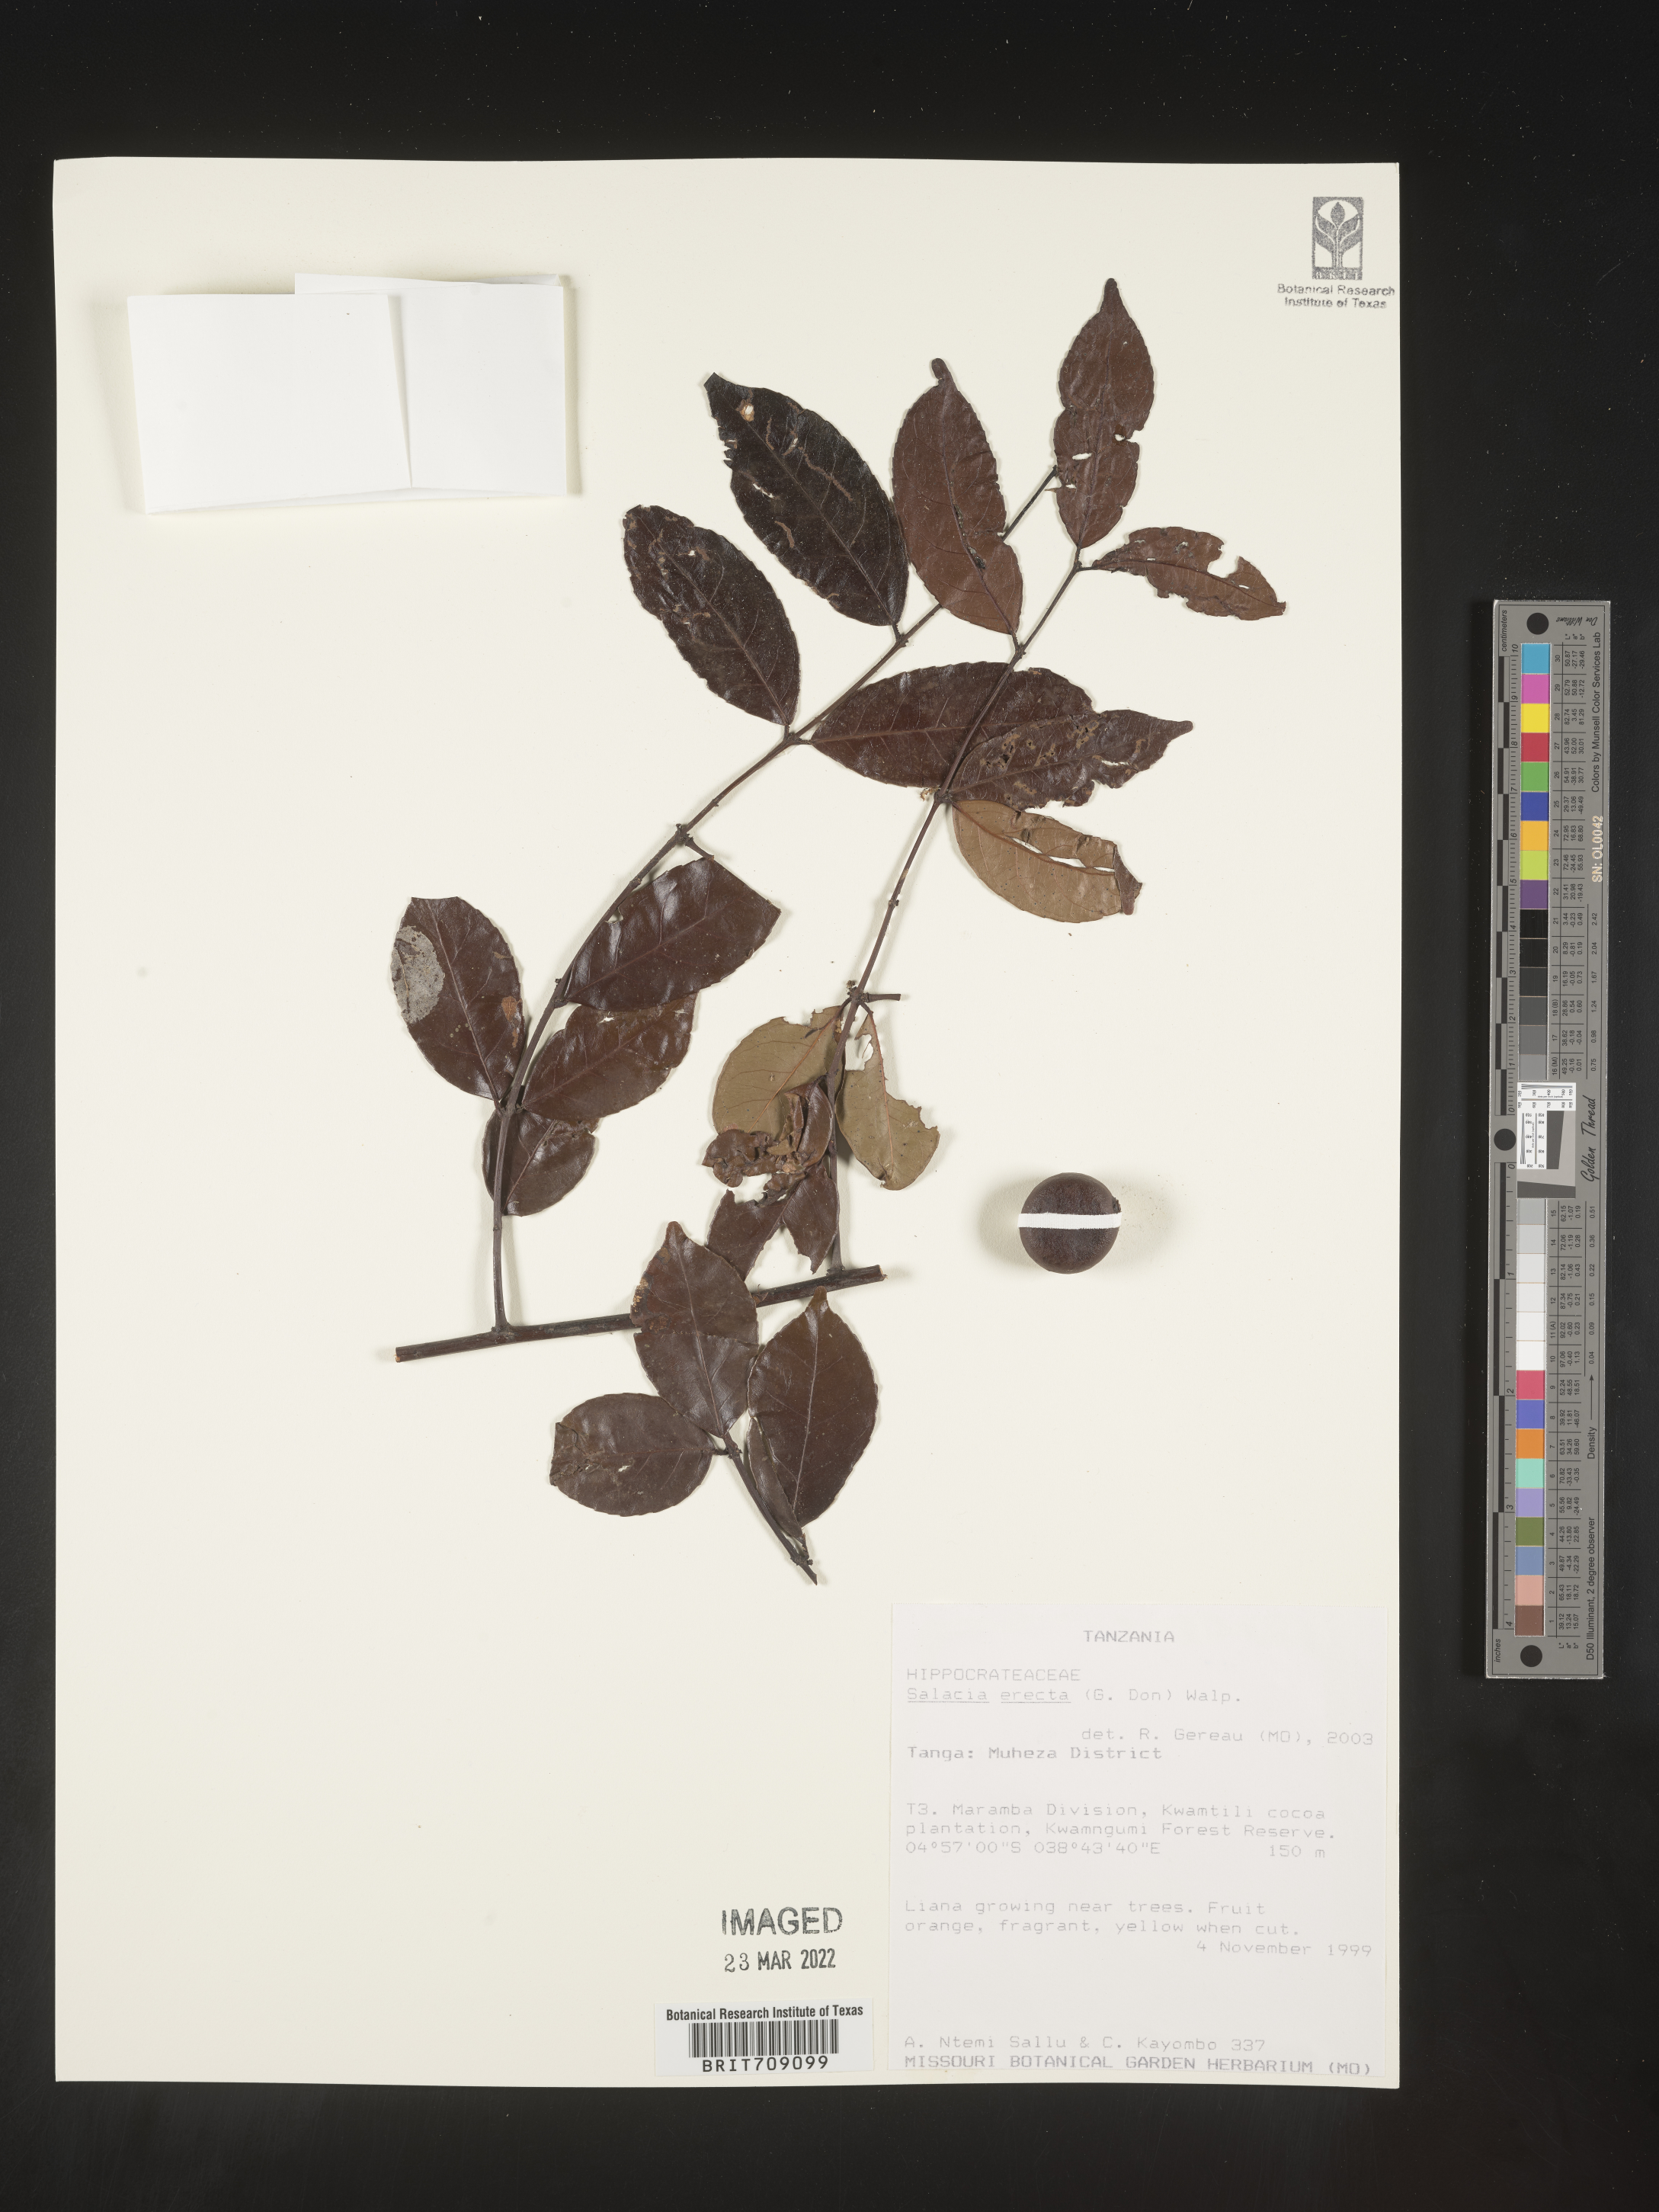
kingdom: Plantae
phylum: Tracheophyta
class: Magnoliopsida
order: Celastrales
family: Celastraceae
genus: Salacia
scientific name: Salacia
